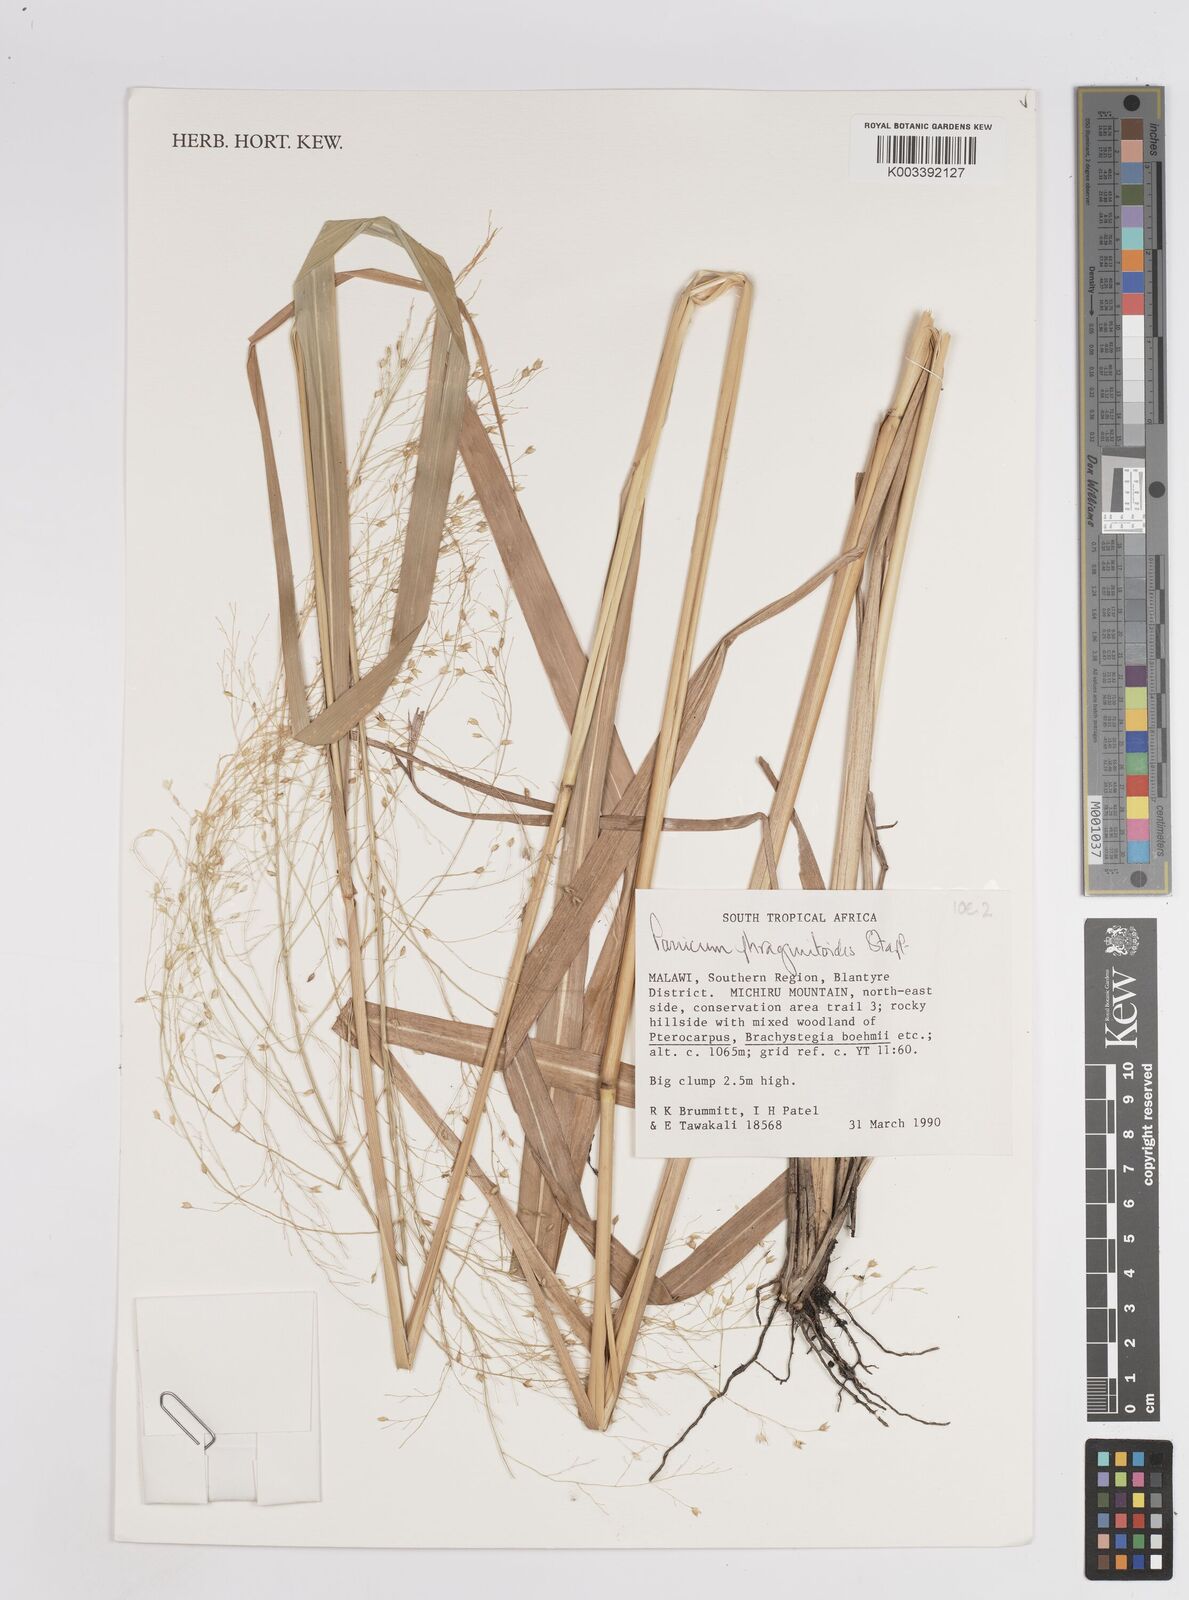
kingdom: Plantae
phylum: Tracheophyta
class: Liliopsida
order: Poales
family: Poaceae
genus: Panicum
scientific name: Panicum phragmitoides
